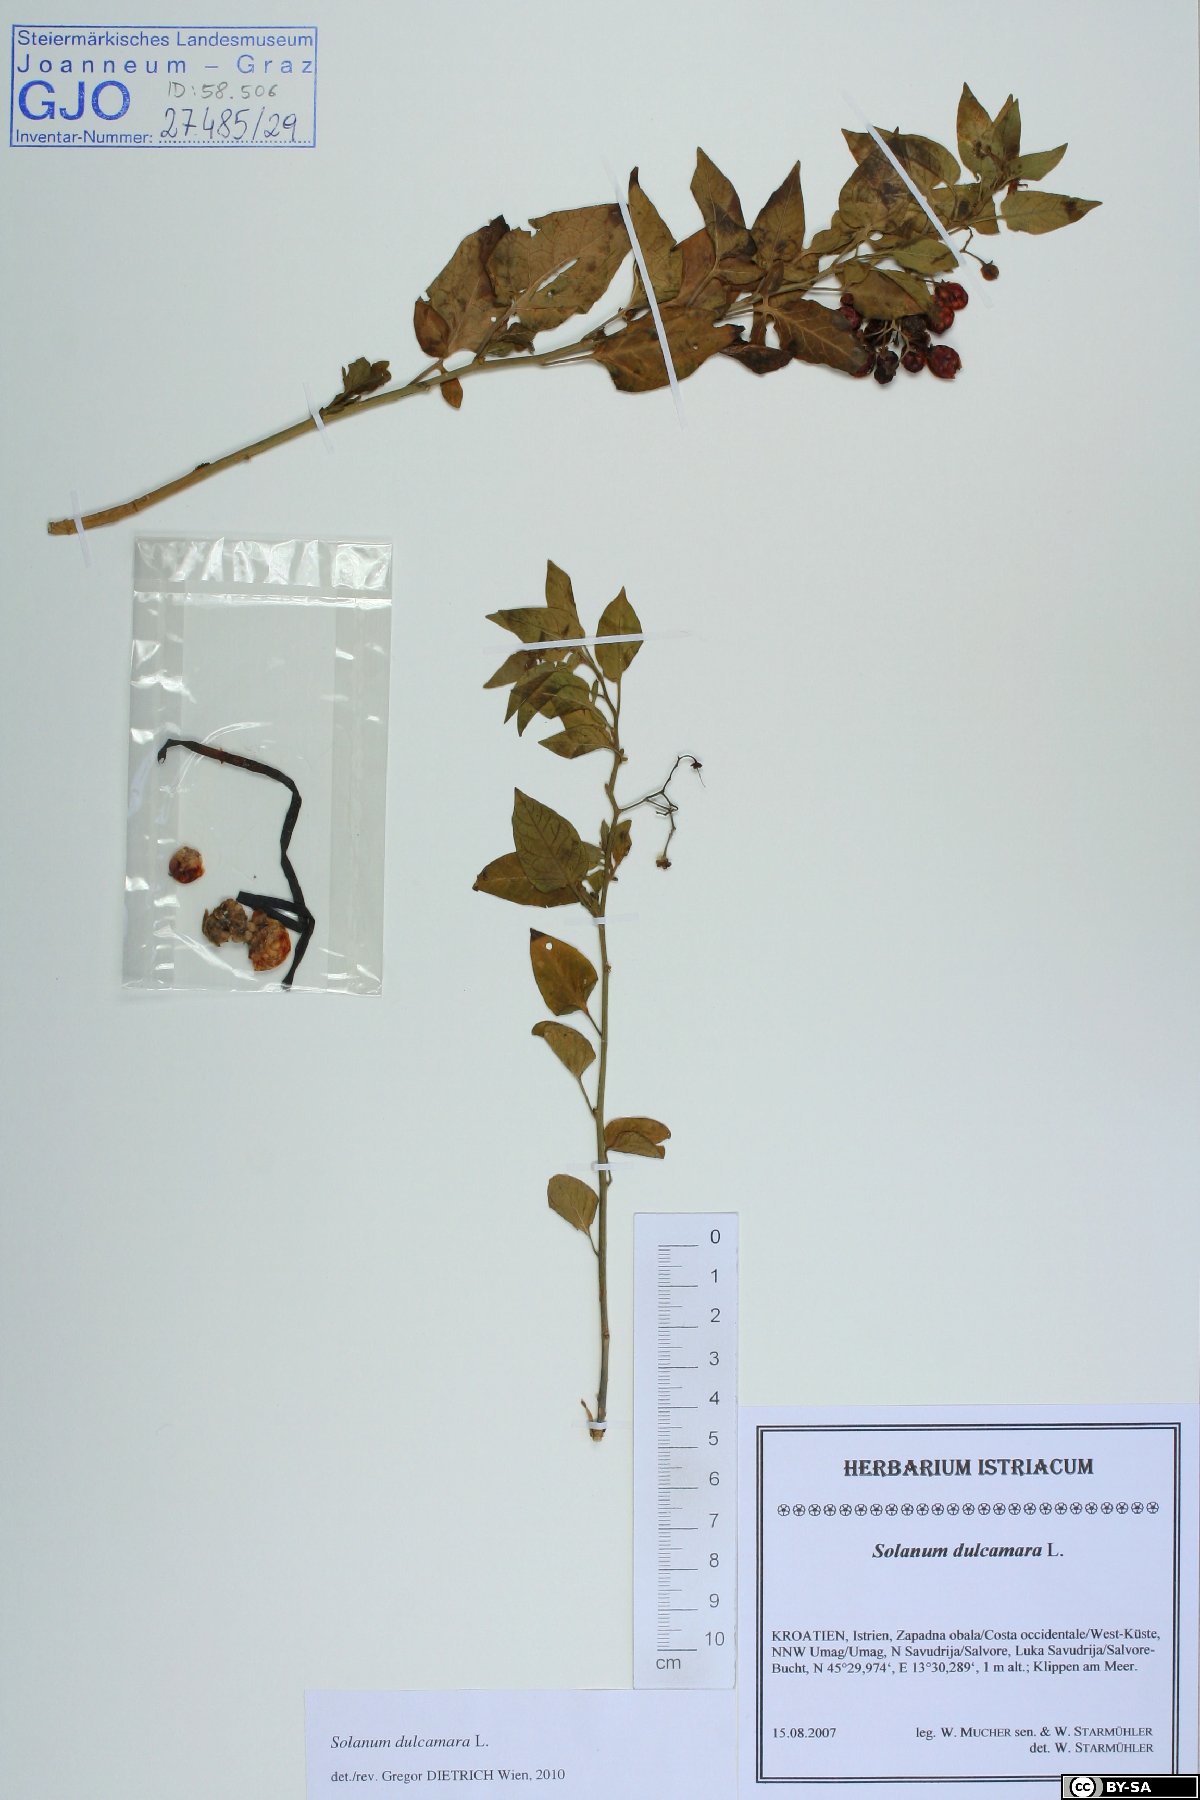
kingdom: Plantae
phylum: Tracheophyta
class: Magnoliopsida
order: Solanales
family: Solanaceae
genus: Solanum
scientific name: Solanum dulcamara
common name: Climbing nightshade
